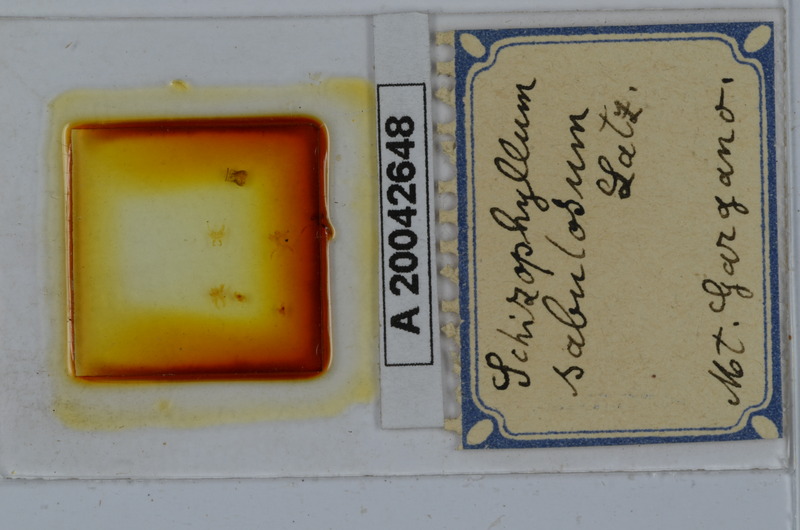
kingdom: Animalia
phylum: Arthropoda
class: Diplopoda
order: Julida
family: Julidae
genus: Schizophyllum
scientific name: Schizophyllum sabulosum
